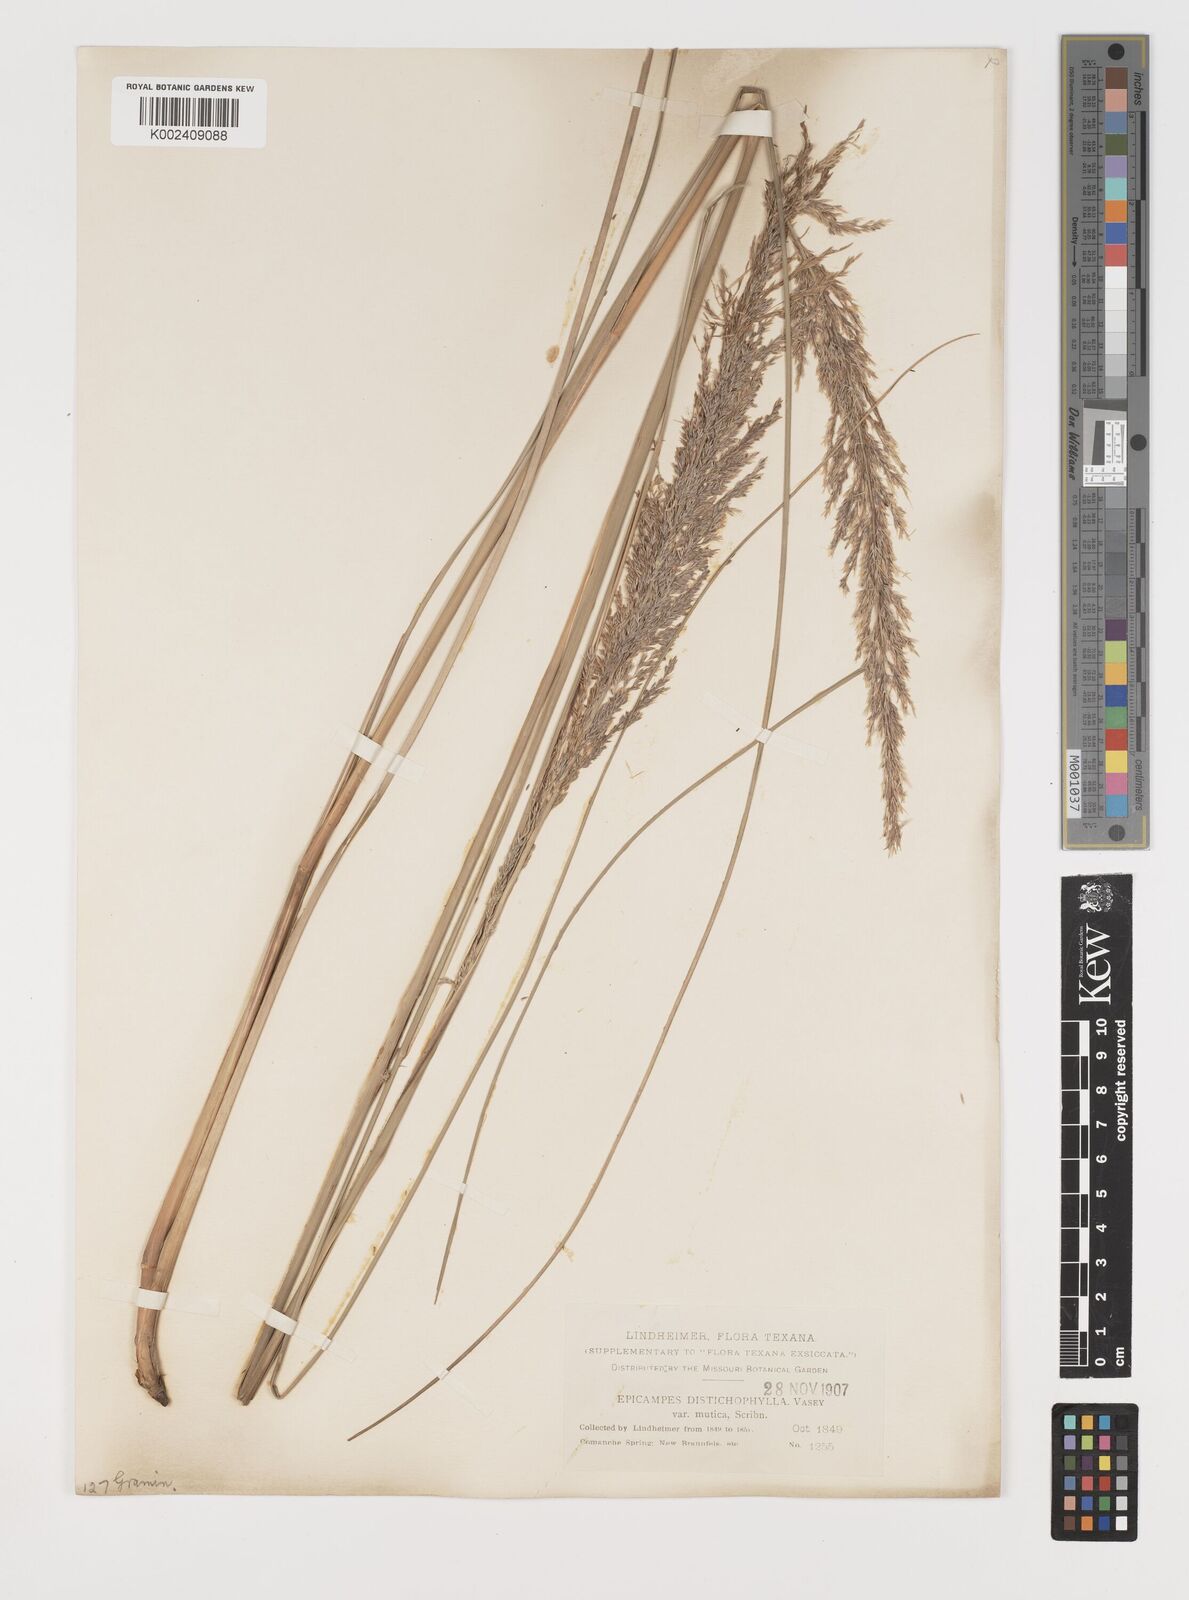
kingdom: Plantae
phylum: Tracheophyta
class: Liliopsida
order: Poales
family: Poaceae
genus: Muhlenbergia
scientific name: Muhlenbergia lindheimeri
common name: Lindheimer's muhly
